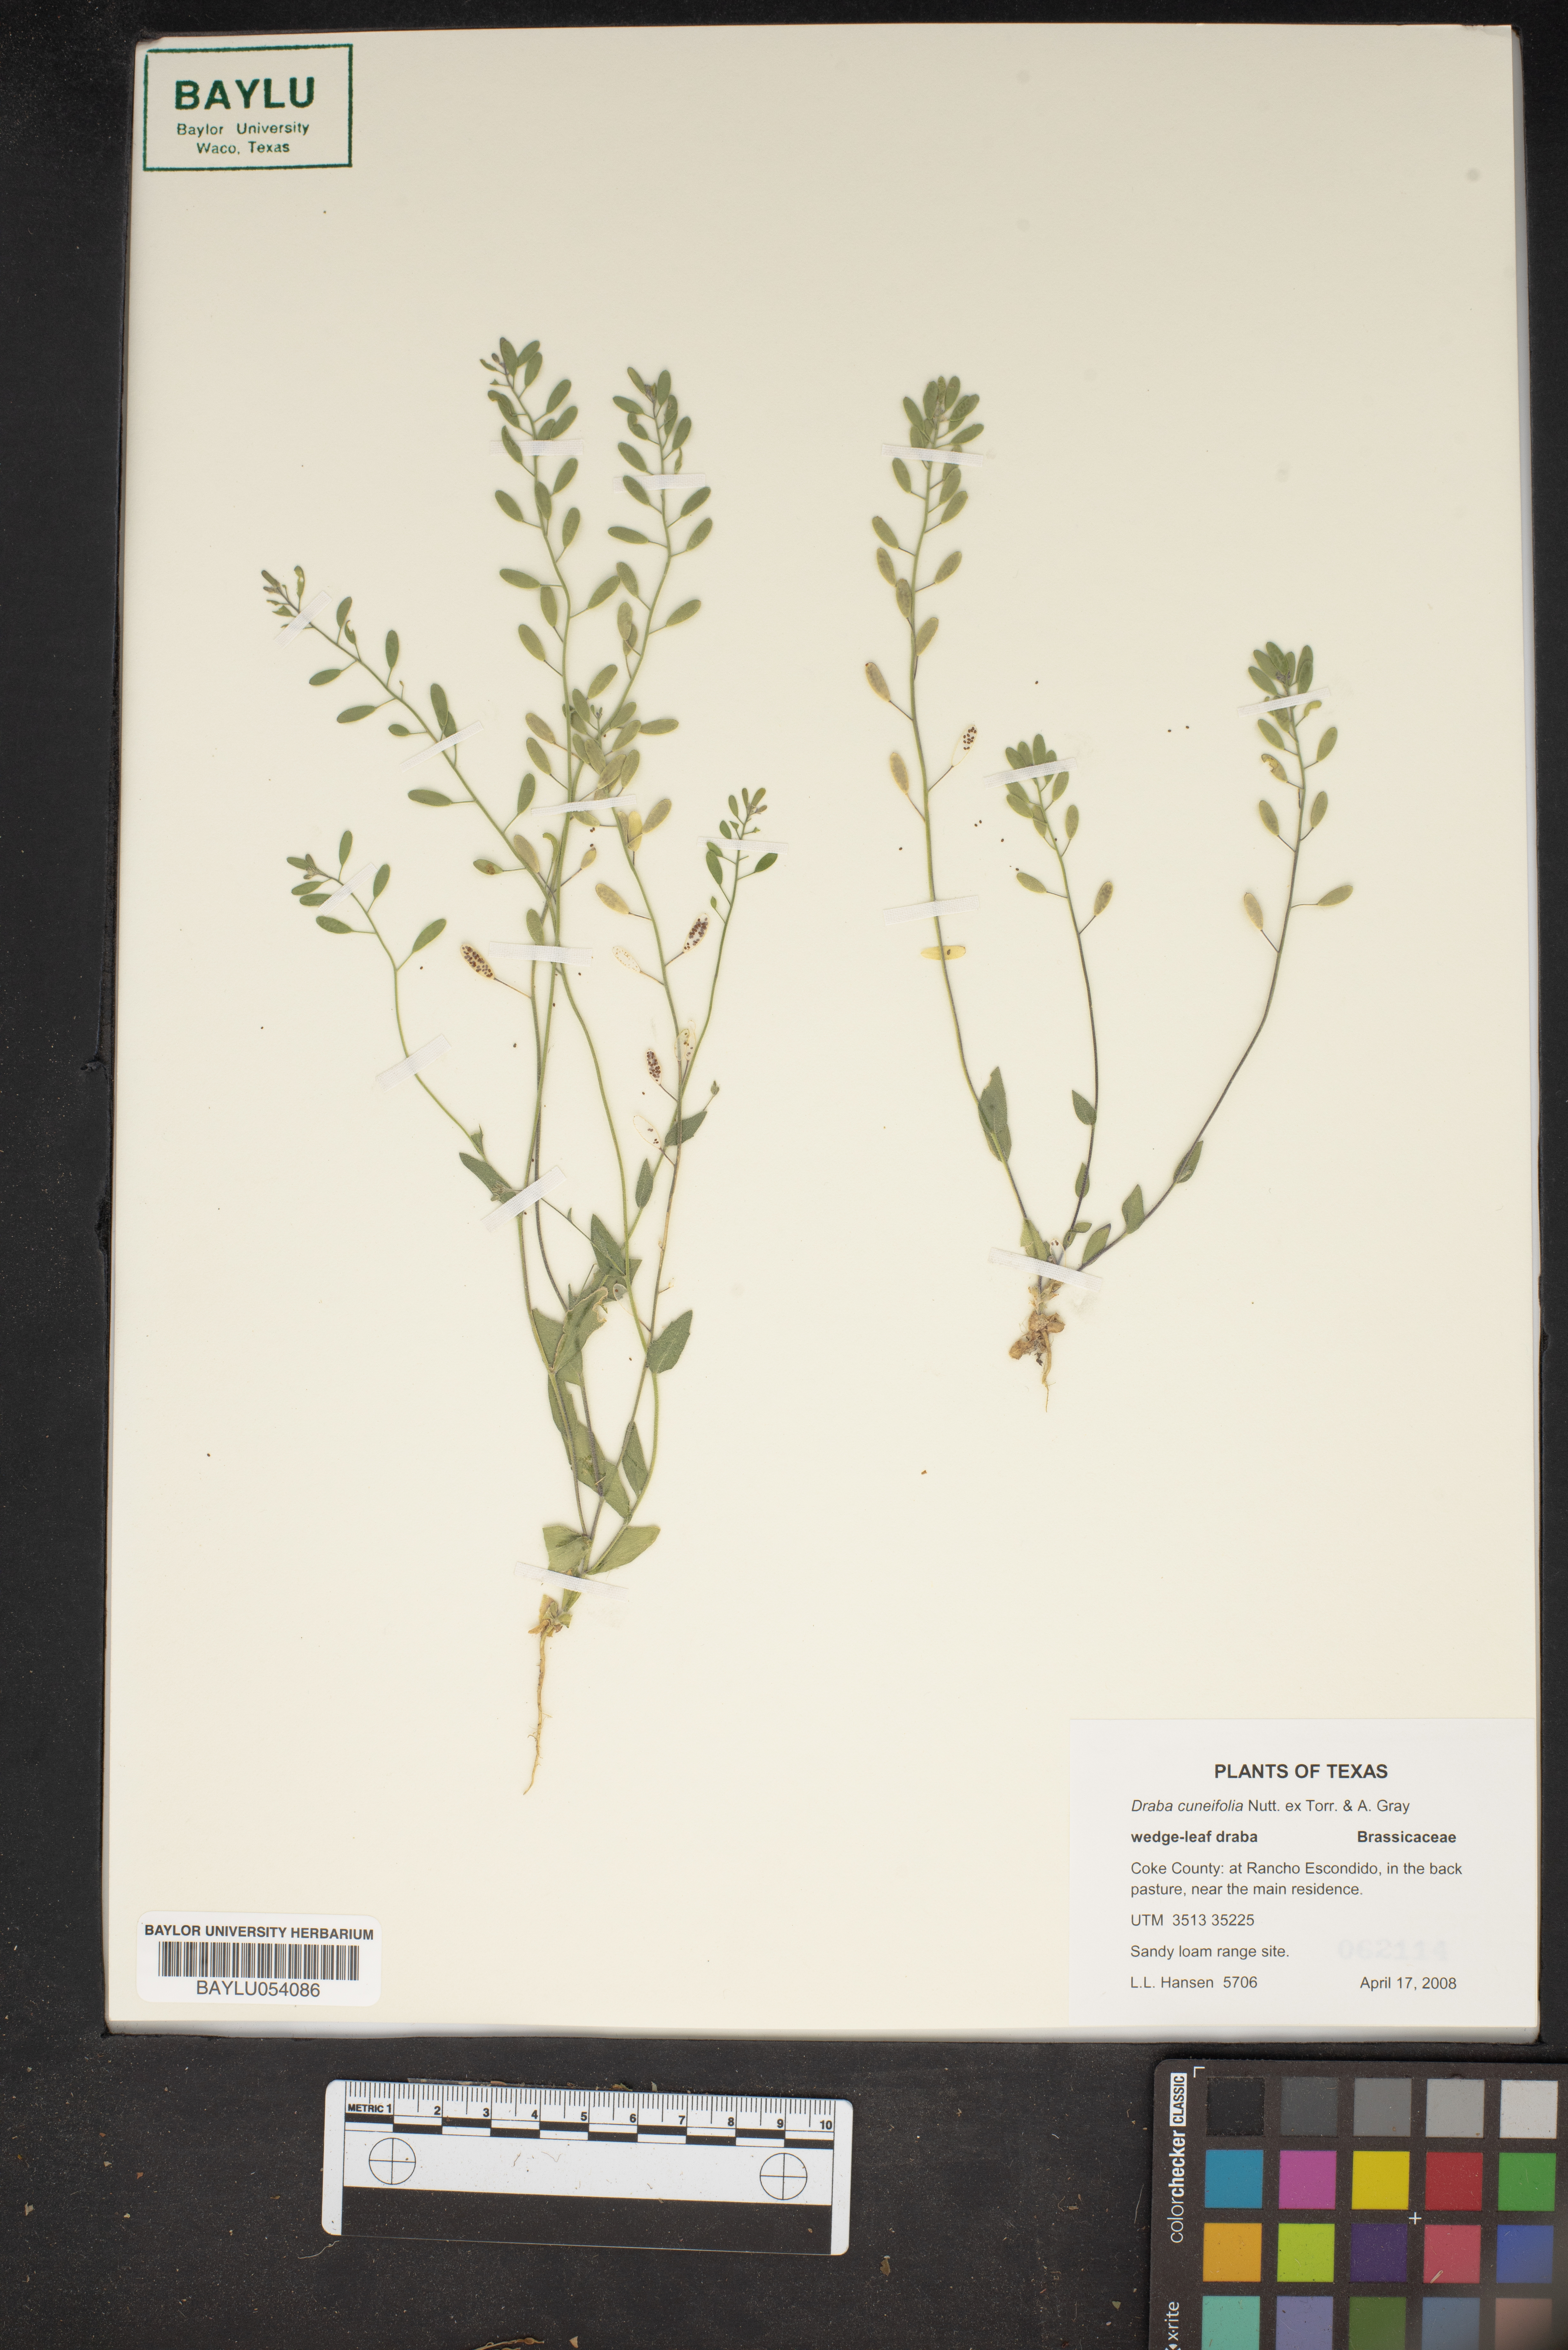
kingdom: Plantae
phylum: Tracheophyta
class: Magnoliopsida
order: Brassicales
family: Brassicaceae
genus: Tomostima
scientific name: Tomostima cuneifolia
